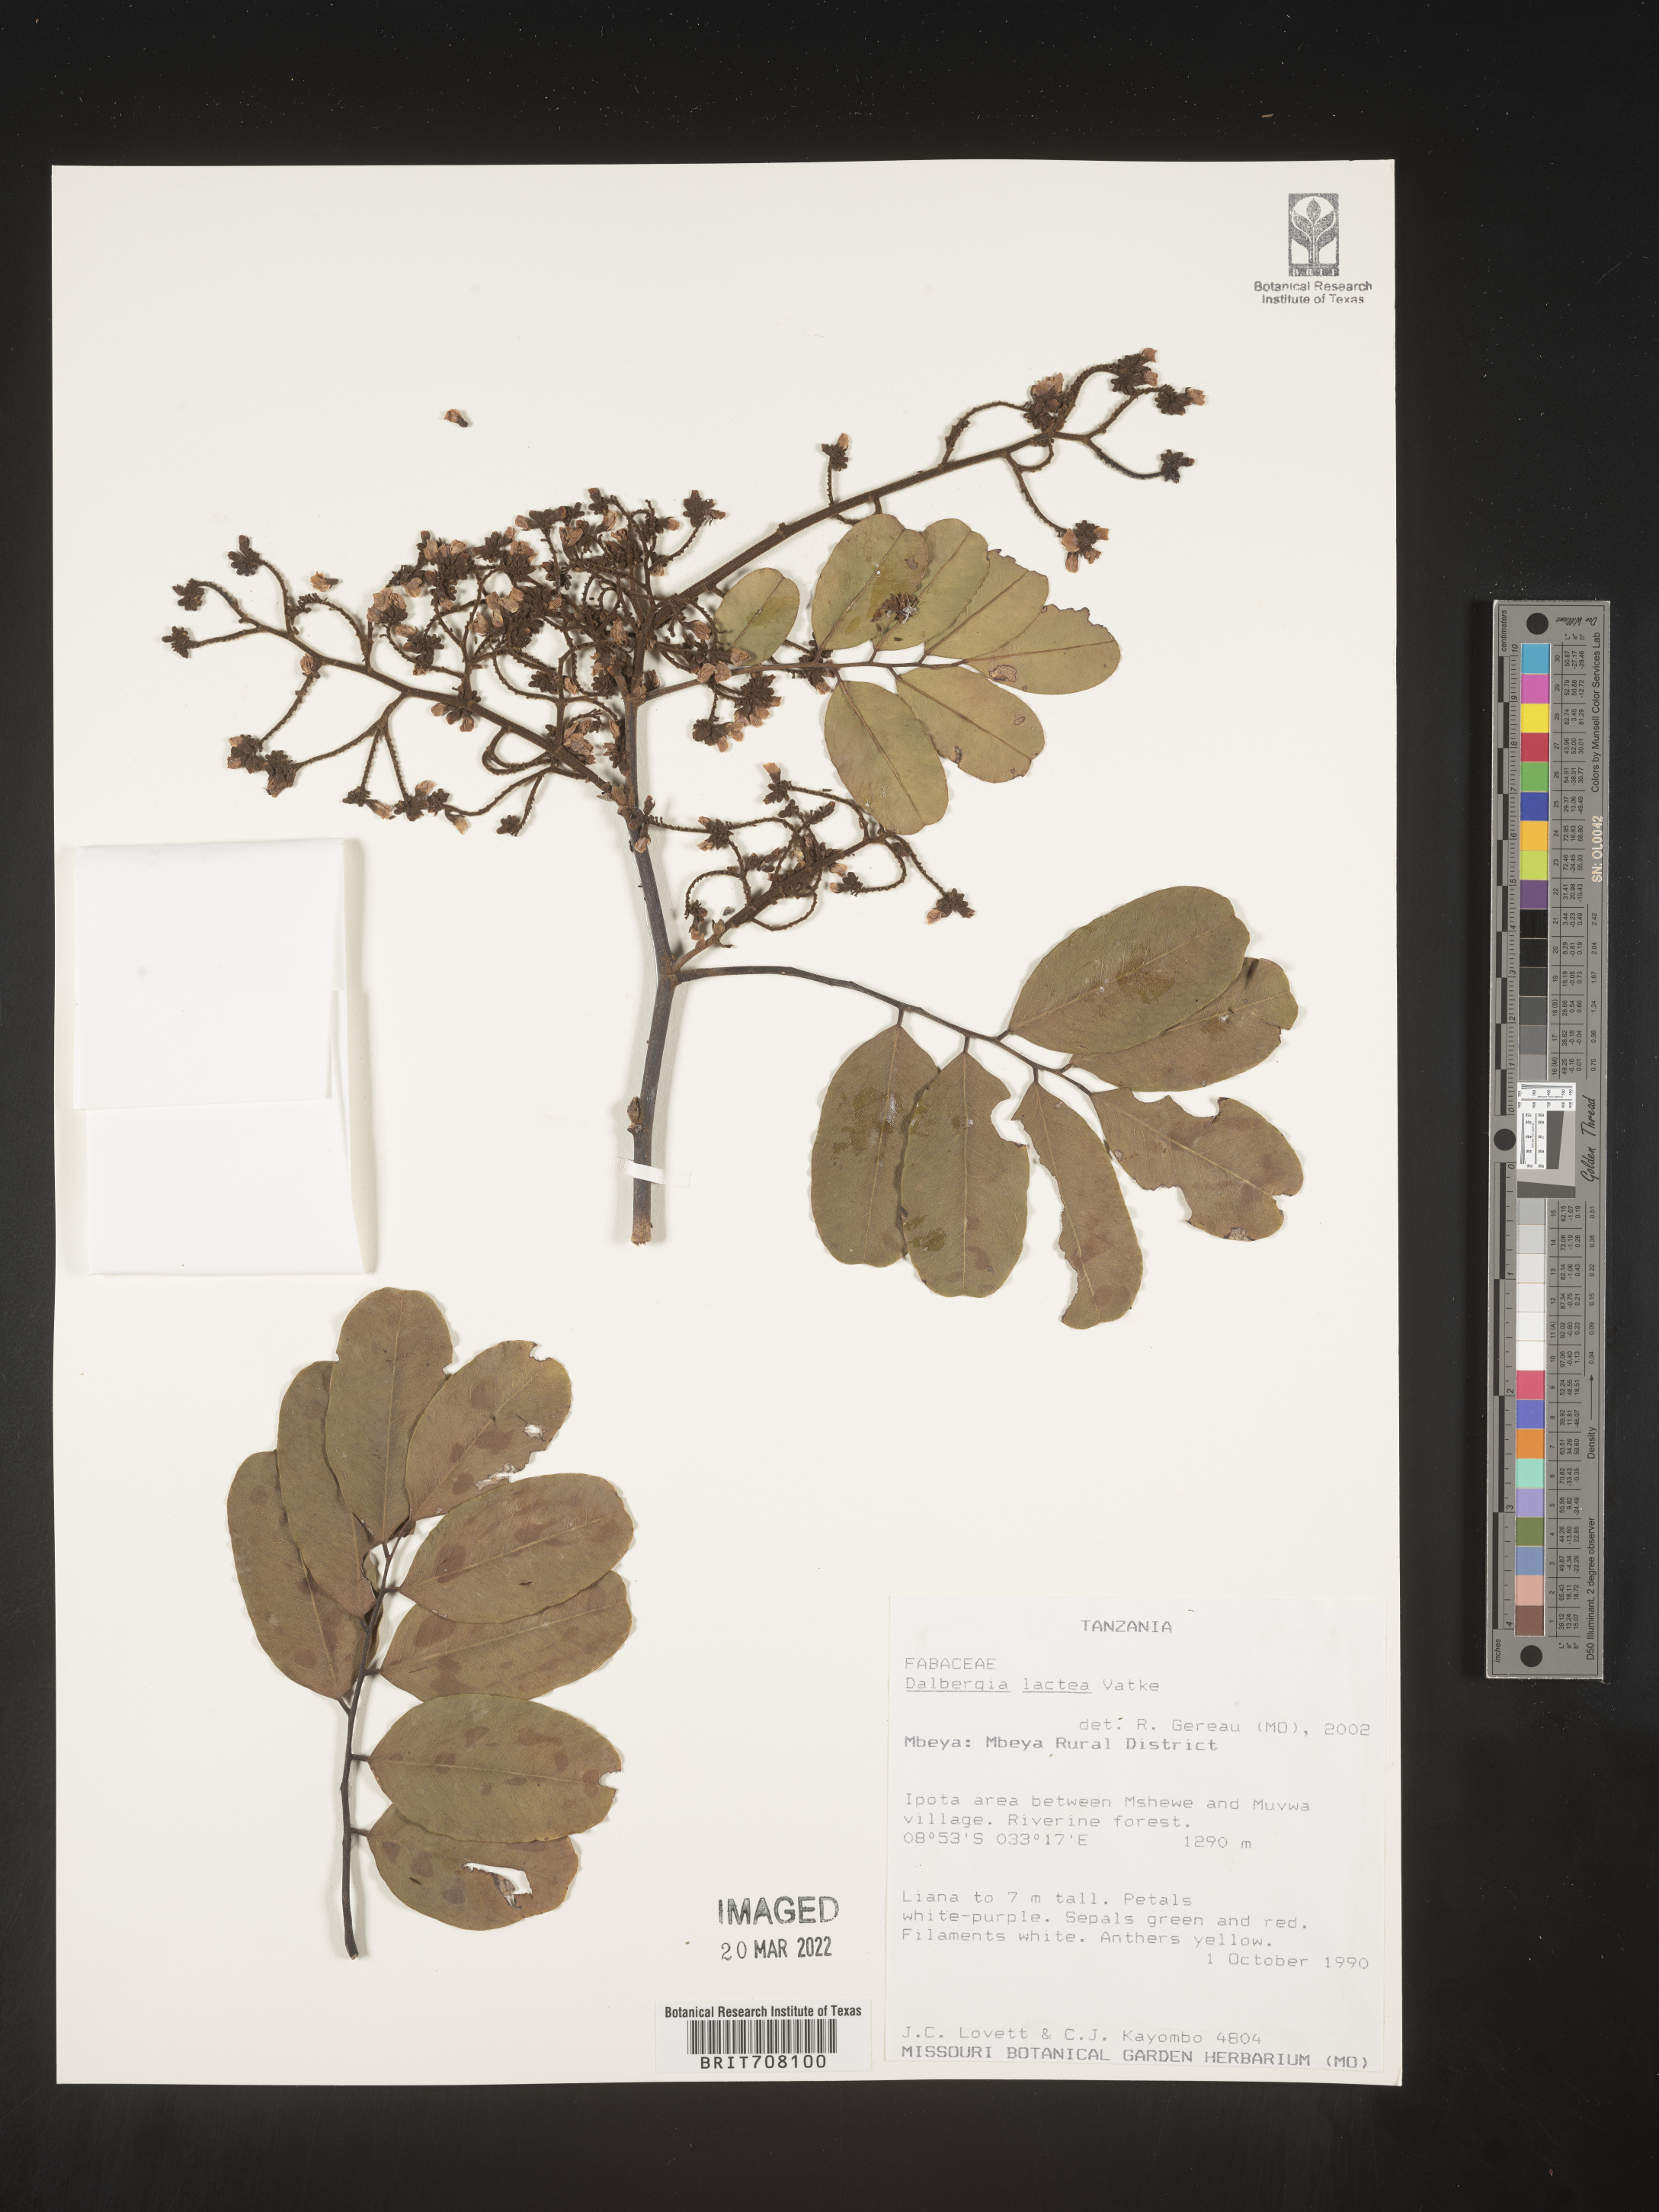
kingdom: Plantae
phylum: Tracheophyta
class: Magnoliopsida
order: Fabales
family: Fabaceae
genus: Dalbergia
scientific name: Dalbergia
